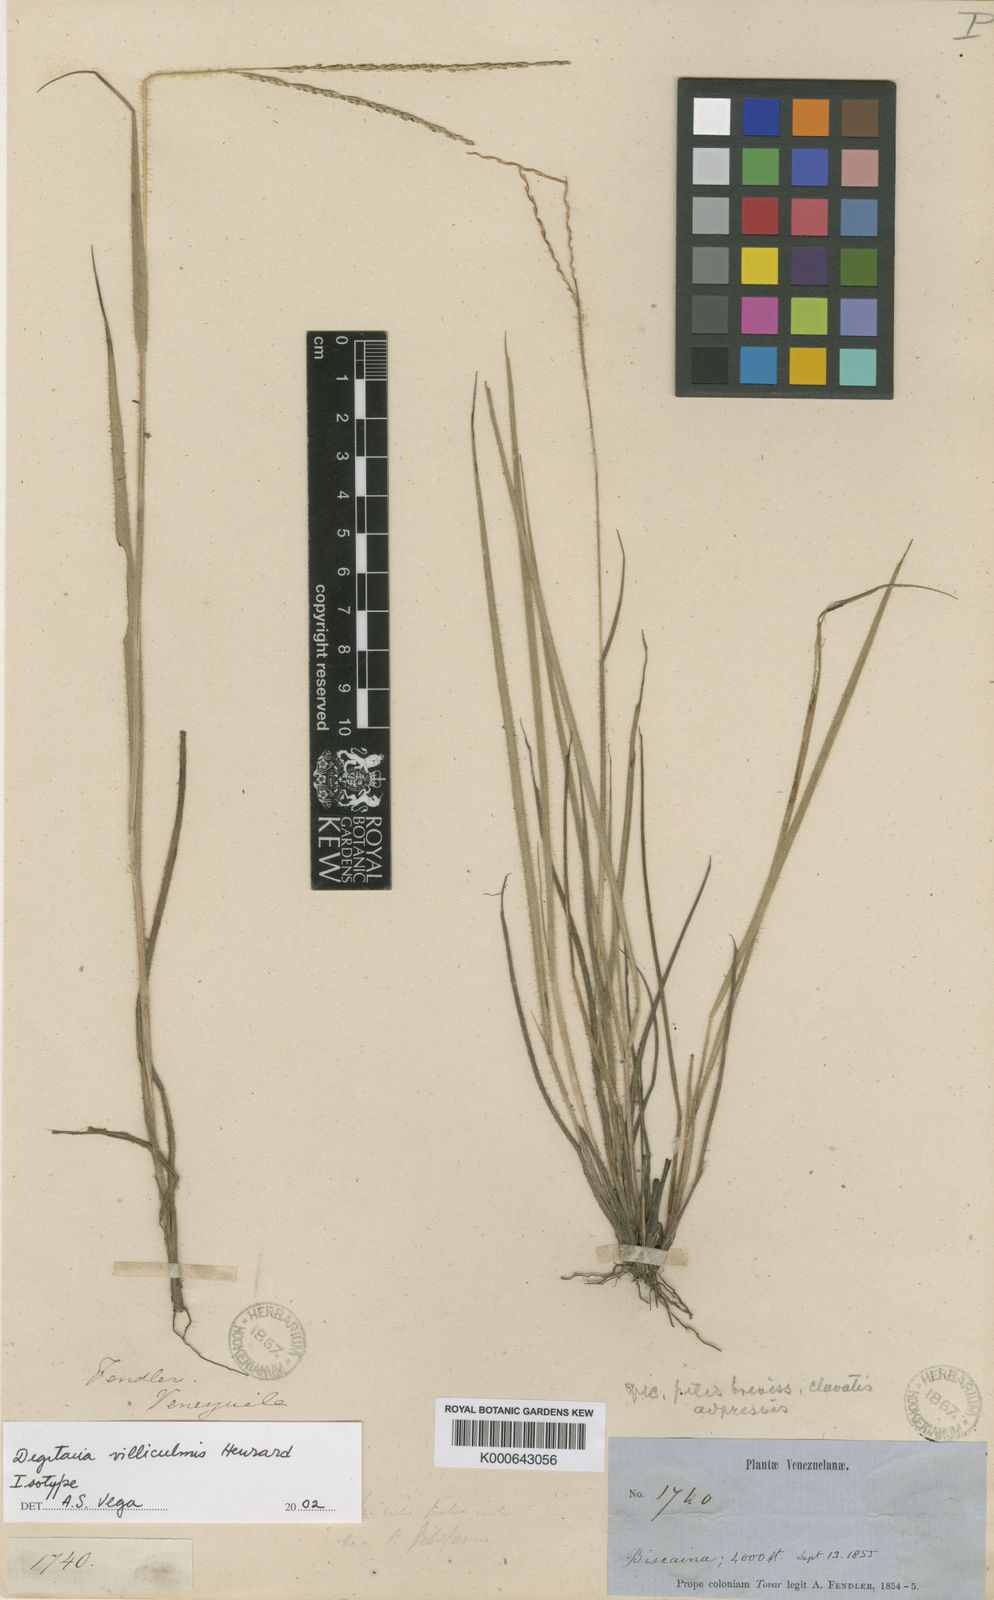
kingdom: Plantae
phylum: Tracheophyta
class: Liliopsida
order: Poales
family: Poaceae
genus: Digitaria
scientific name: Digitaria villiculmis
